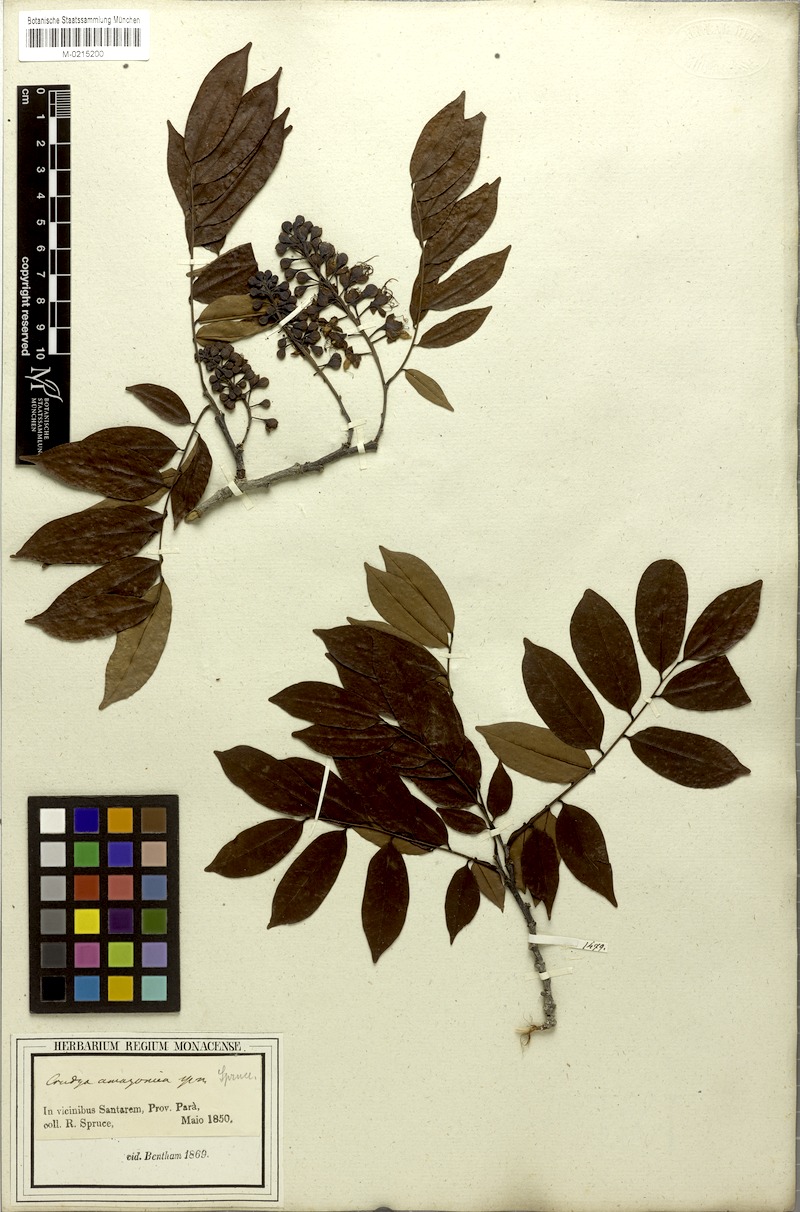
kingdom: Plantae
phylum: Tracheophyta
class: Magnoliopsida
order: Fabales
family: Fabaceae
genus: Crudia
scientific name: Crudia amazonica
